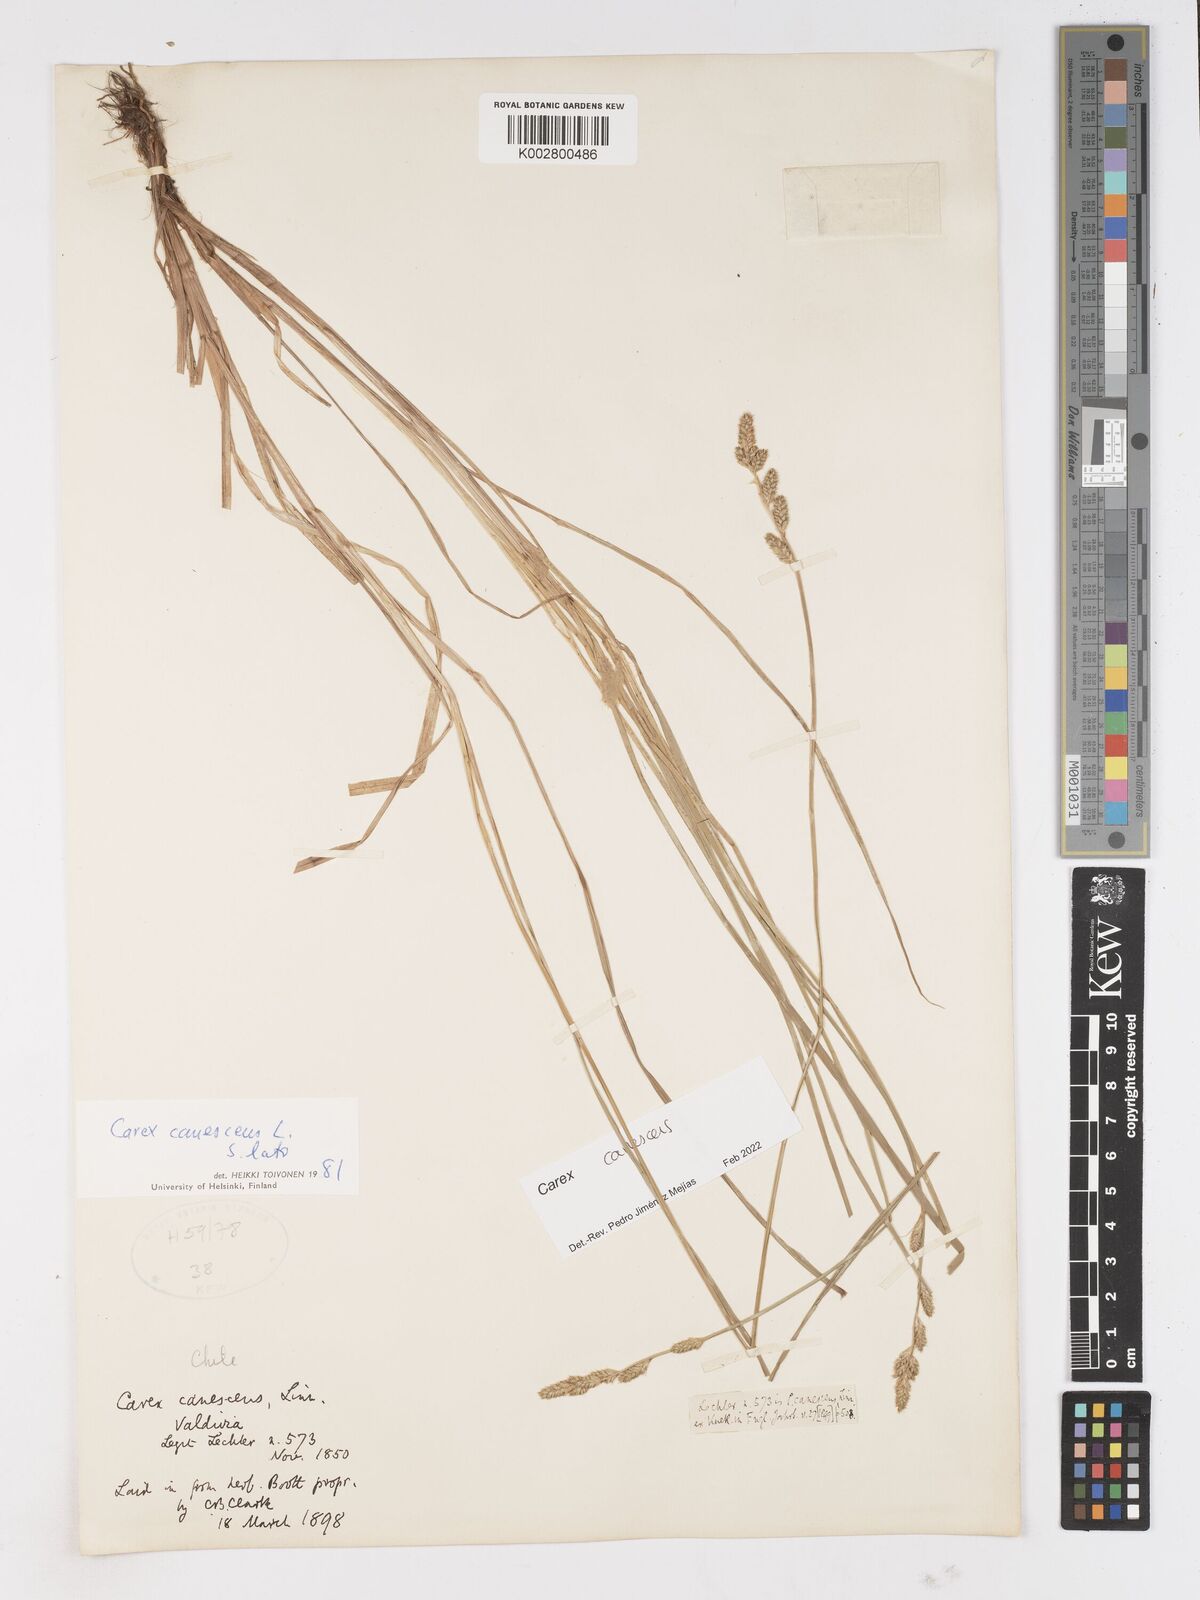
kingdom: Plantae
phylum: Tracheophyta
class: Liliopsida
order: Poales
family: Cyperaceae
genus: Carex
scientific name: Carex curta
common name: White sedge
